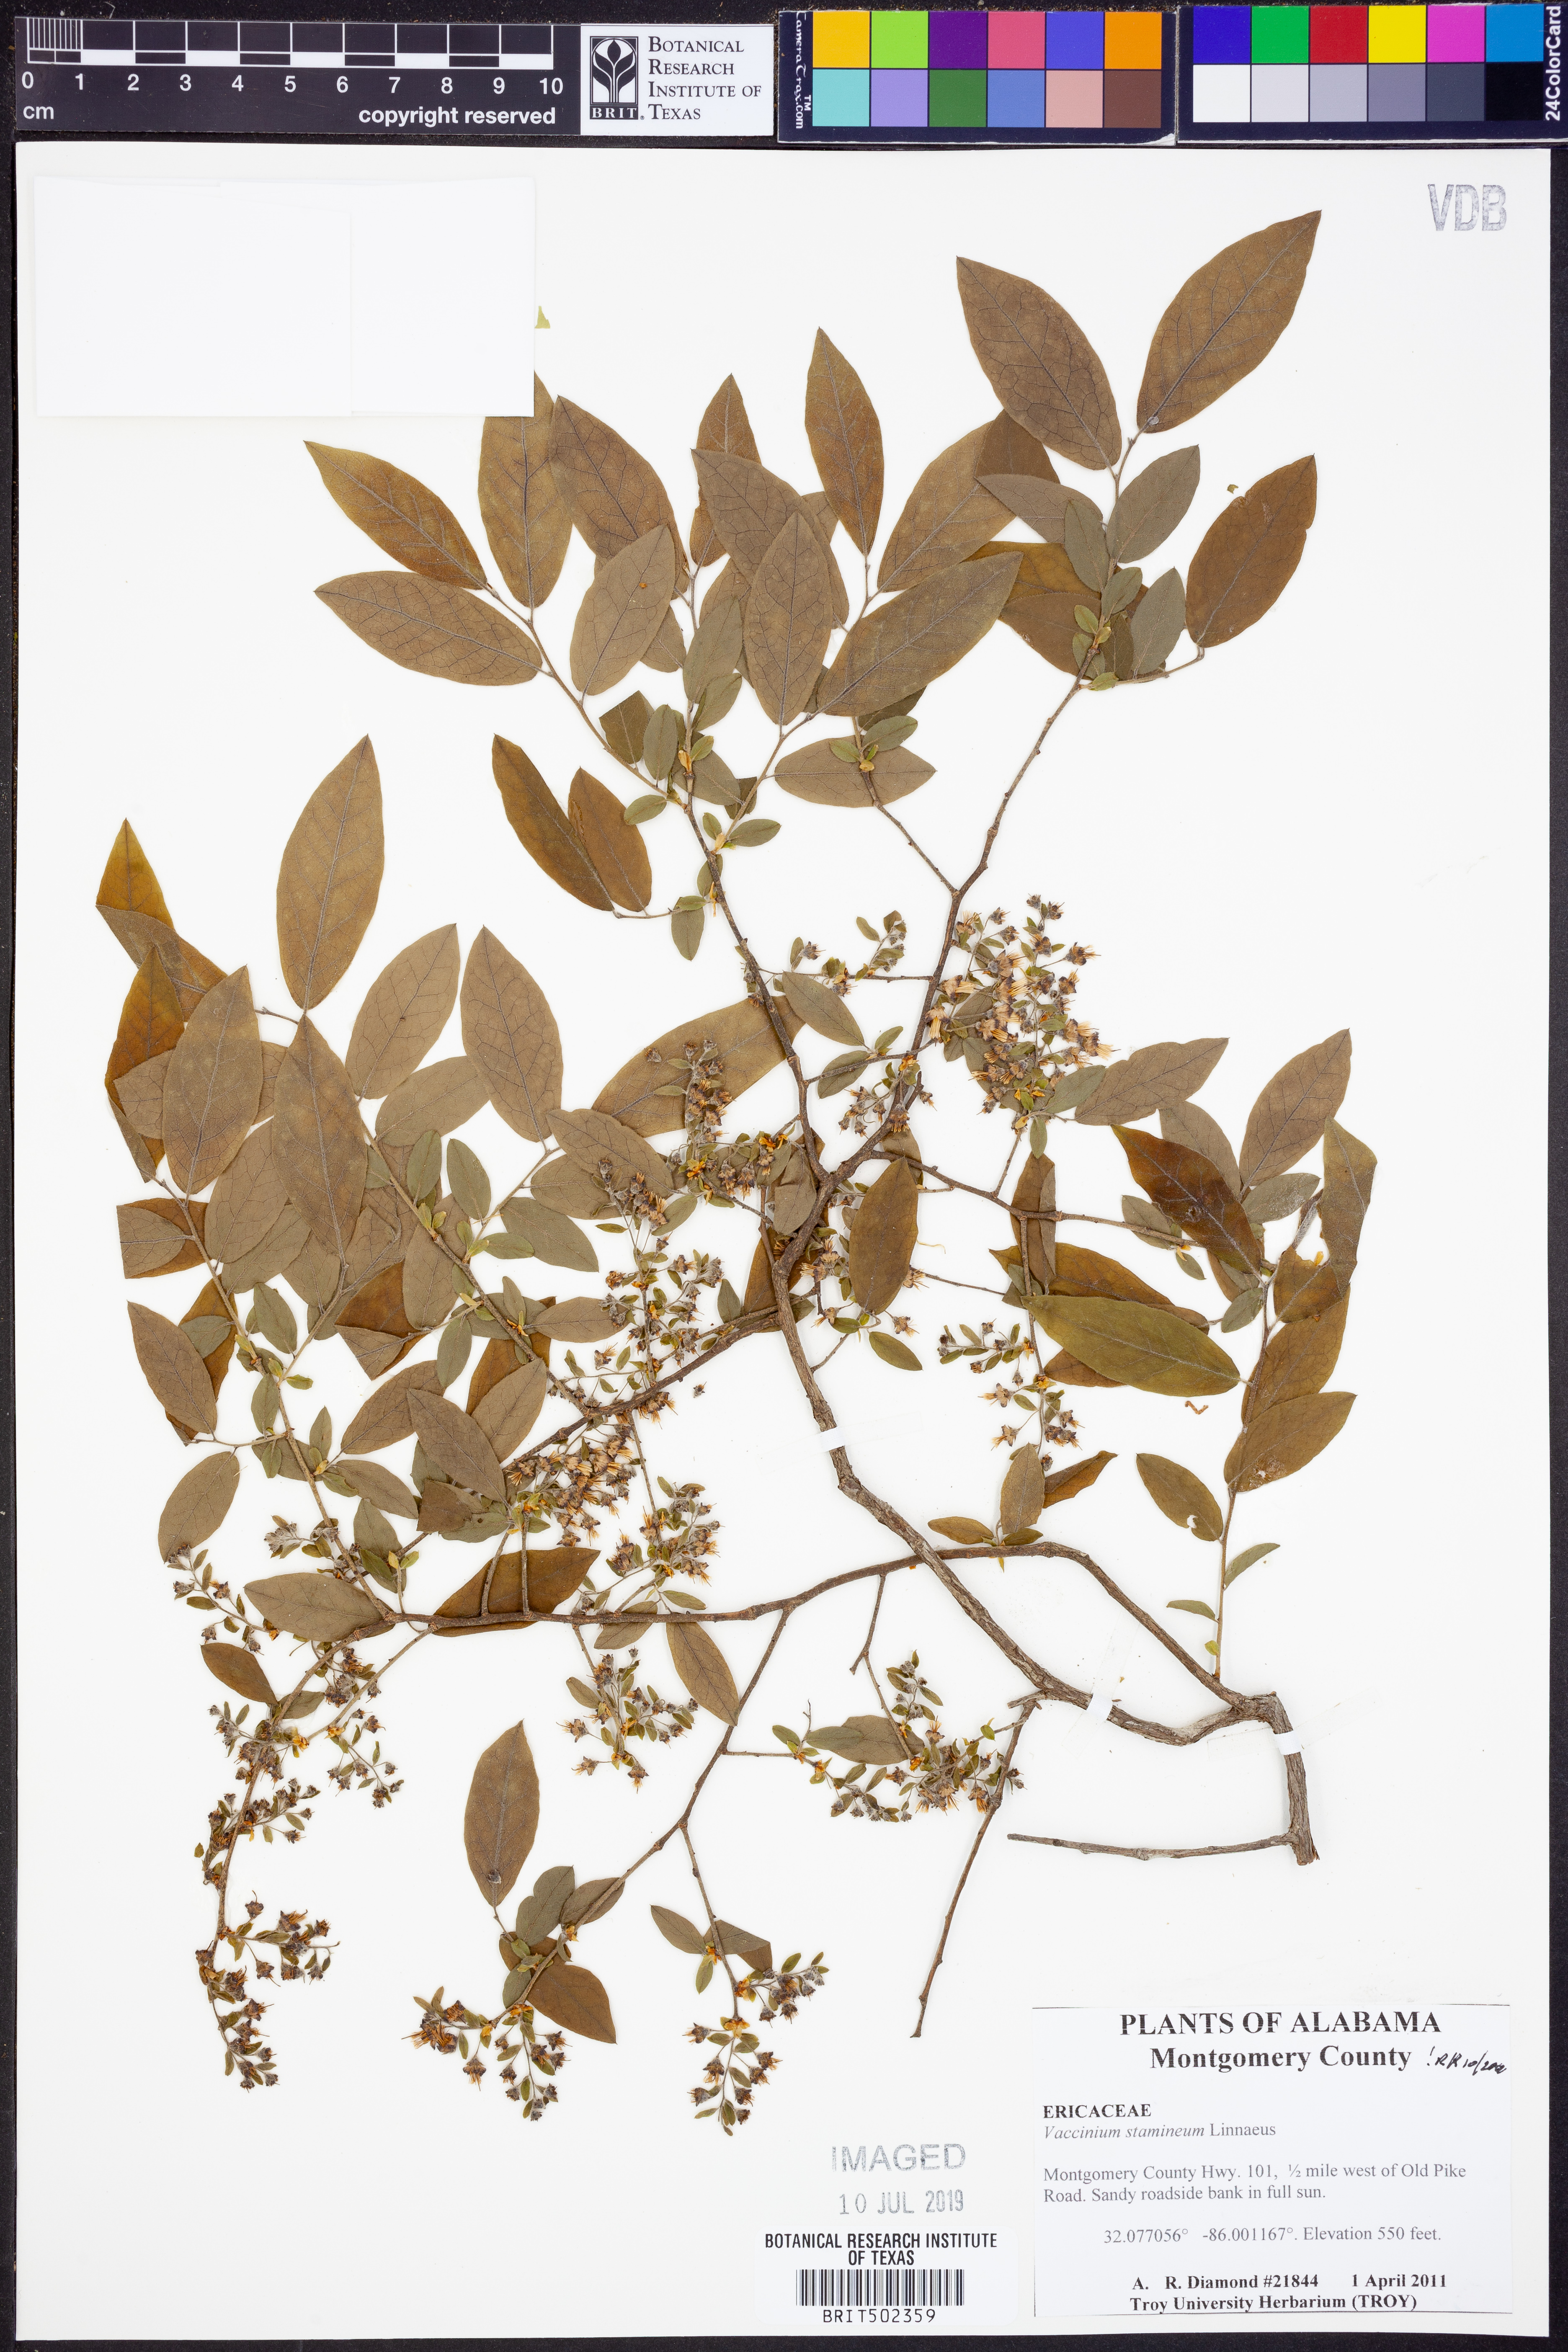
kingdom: Plantae
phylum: Tracheophyta
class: Magnoliopsida
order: Ericales
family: Ericaceae
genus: Vaccinium
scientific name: Vaccinium stamineum
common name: Deerberry
